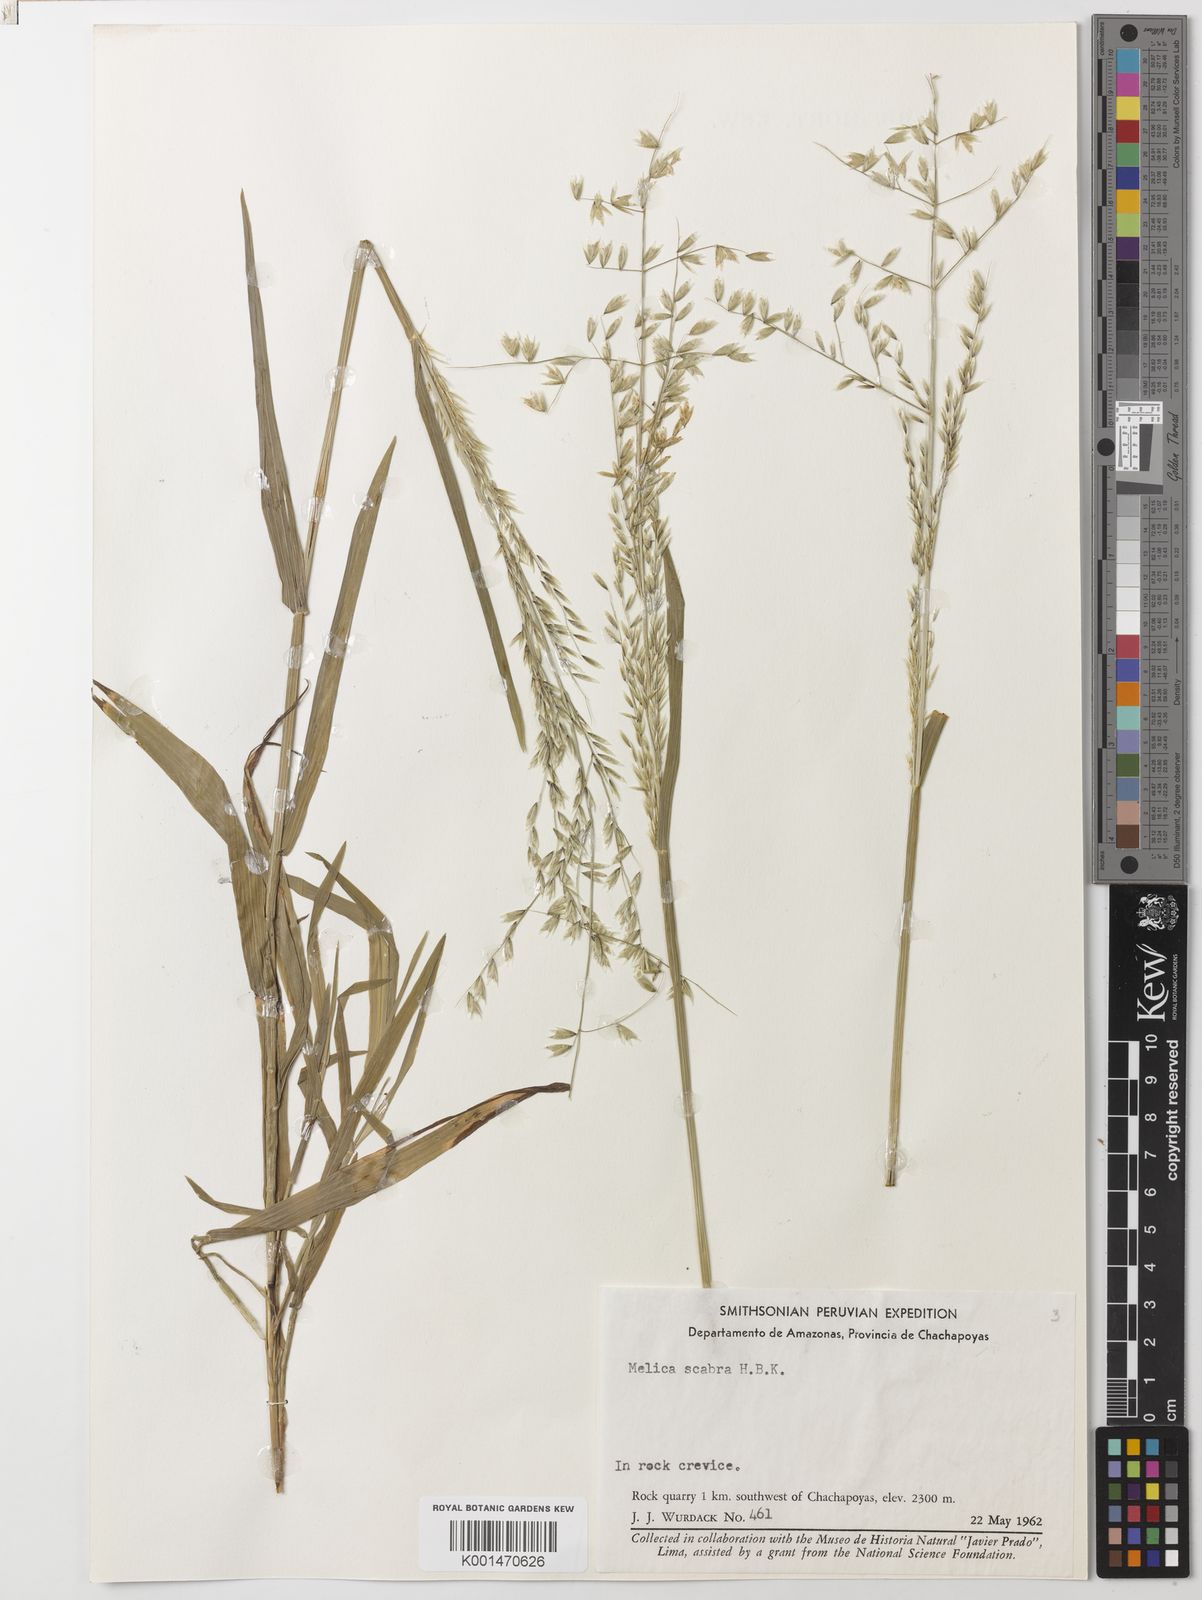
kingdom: Plantae
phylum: Tracheophyta
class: Liliopsida
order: Poales
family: Poaceae
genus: Melica
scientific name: Melica scabra
